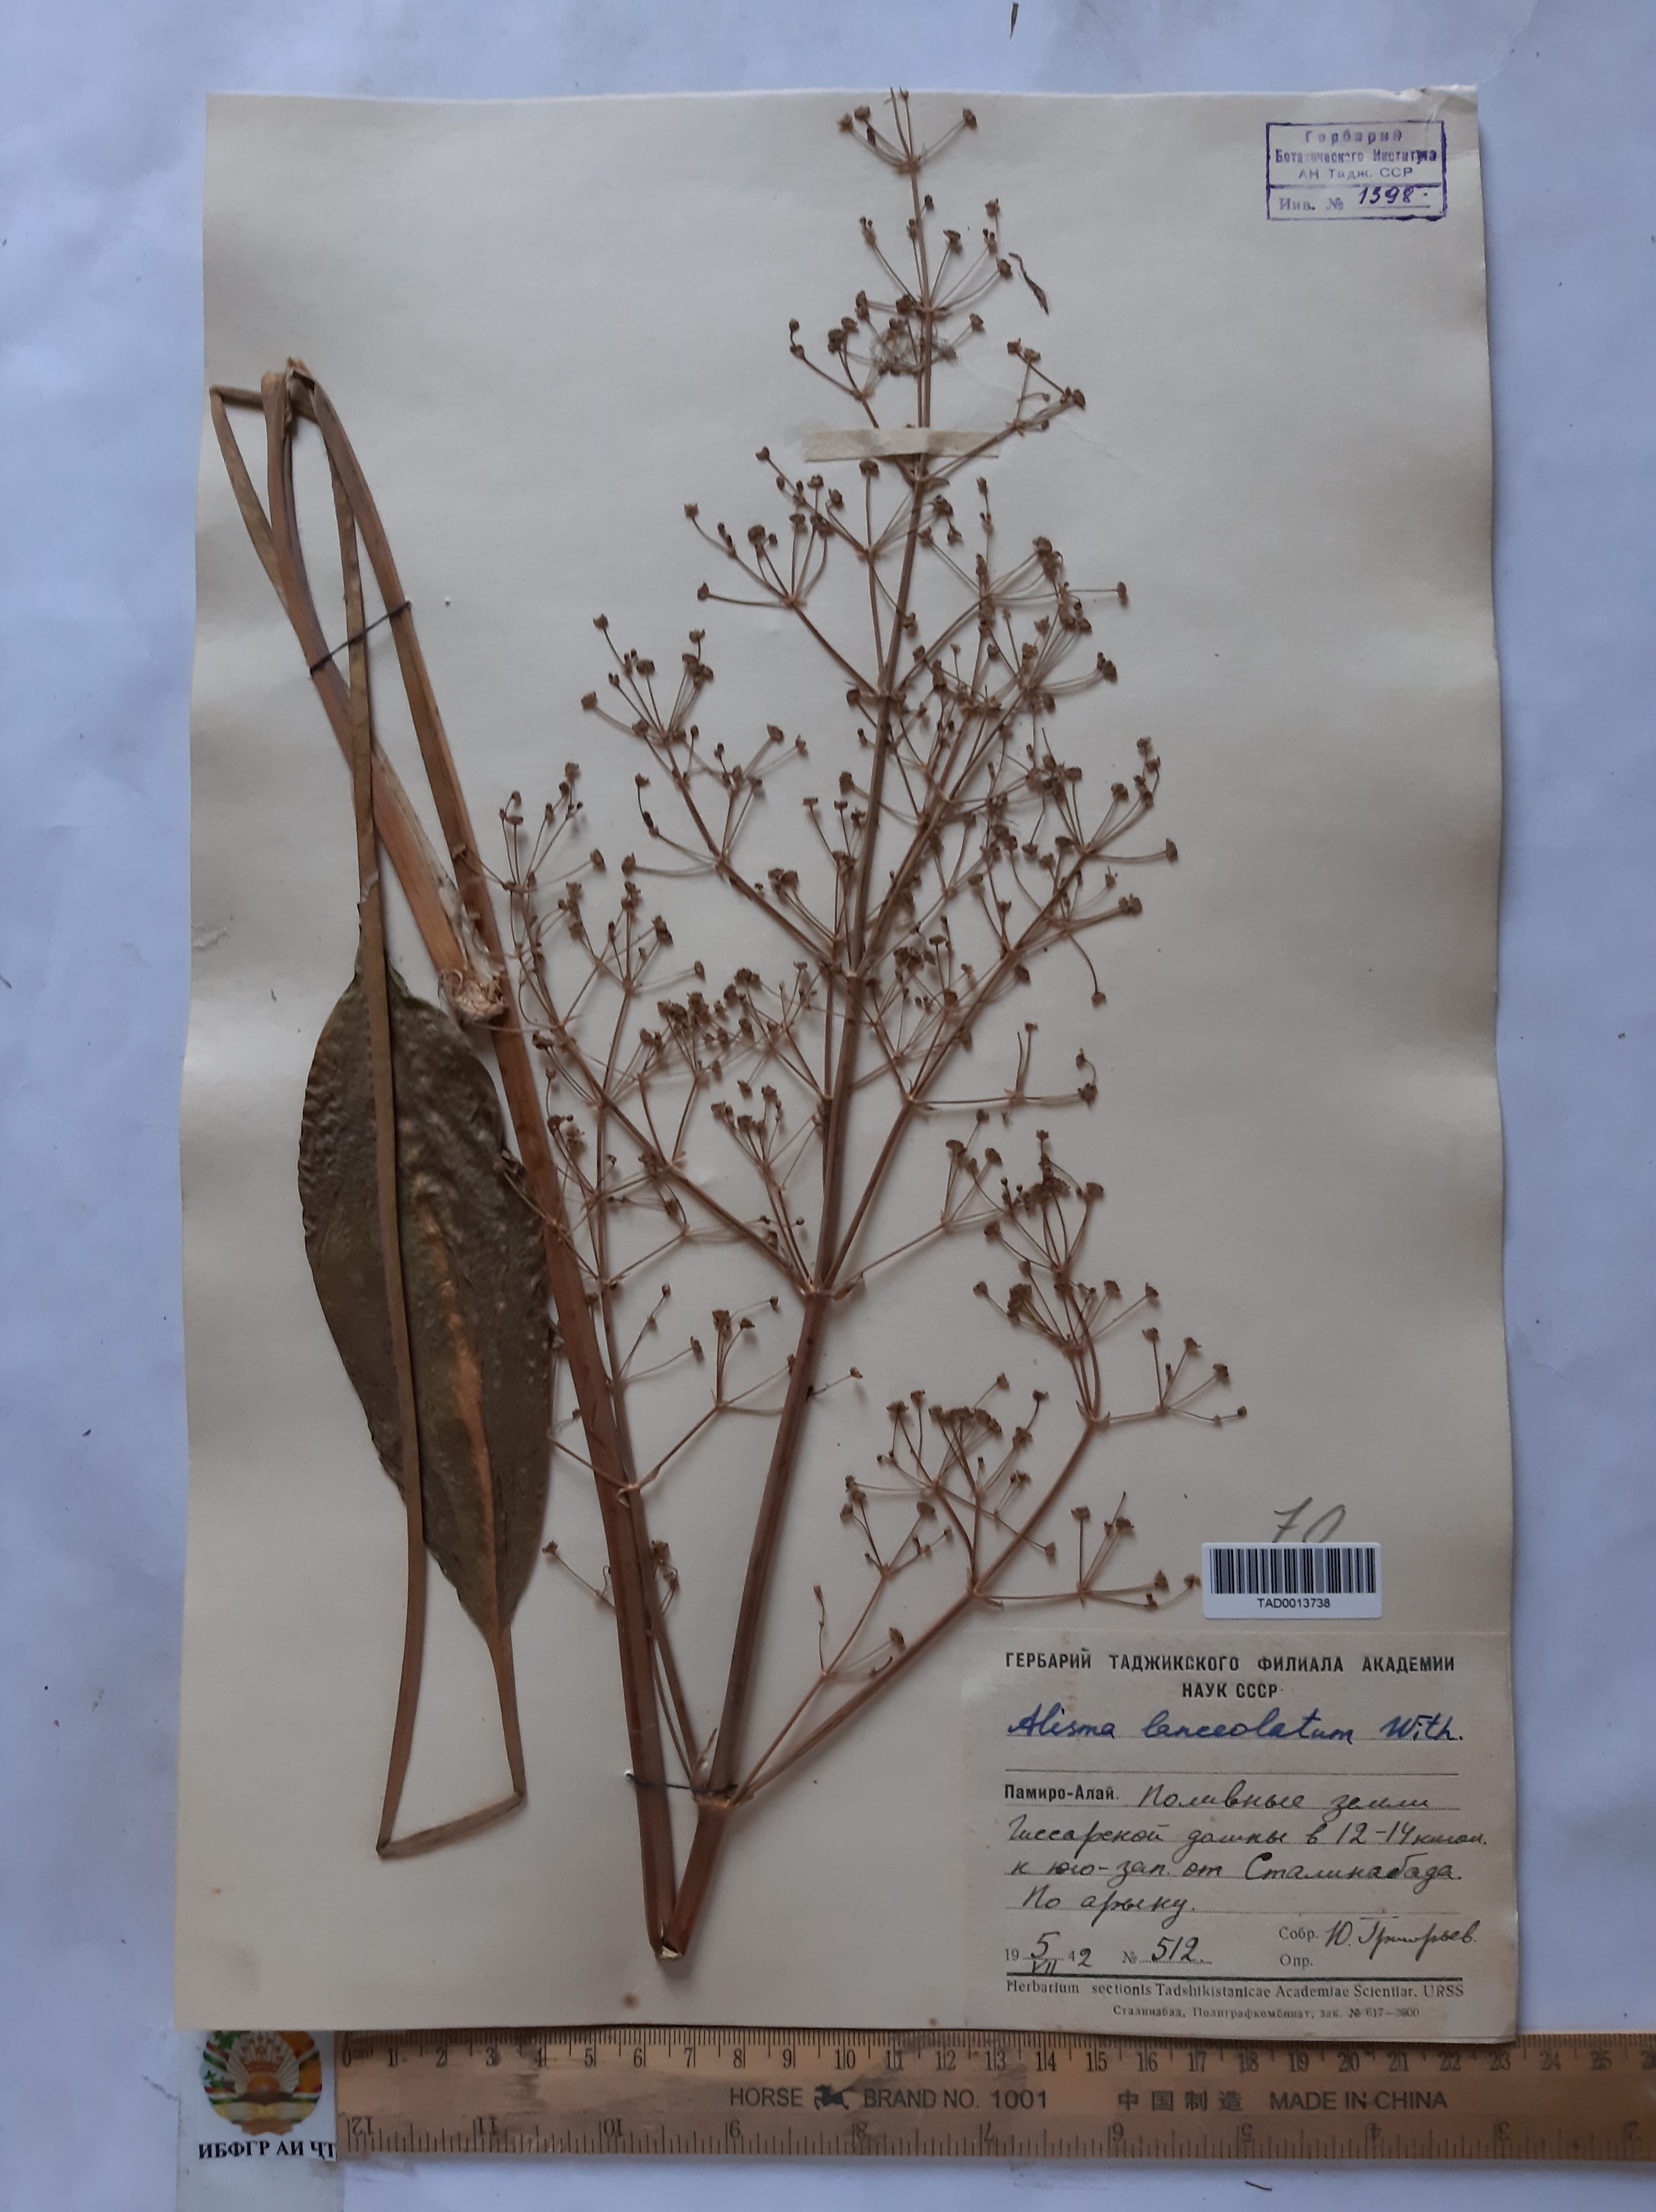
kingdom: Plantae
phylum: Tracheophyta
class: Liliopsida
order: Alismatales
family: Alismataceae
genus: Alisma
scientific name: Alisma lanceolatum
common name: Narrow-leaved water-plantain
